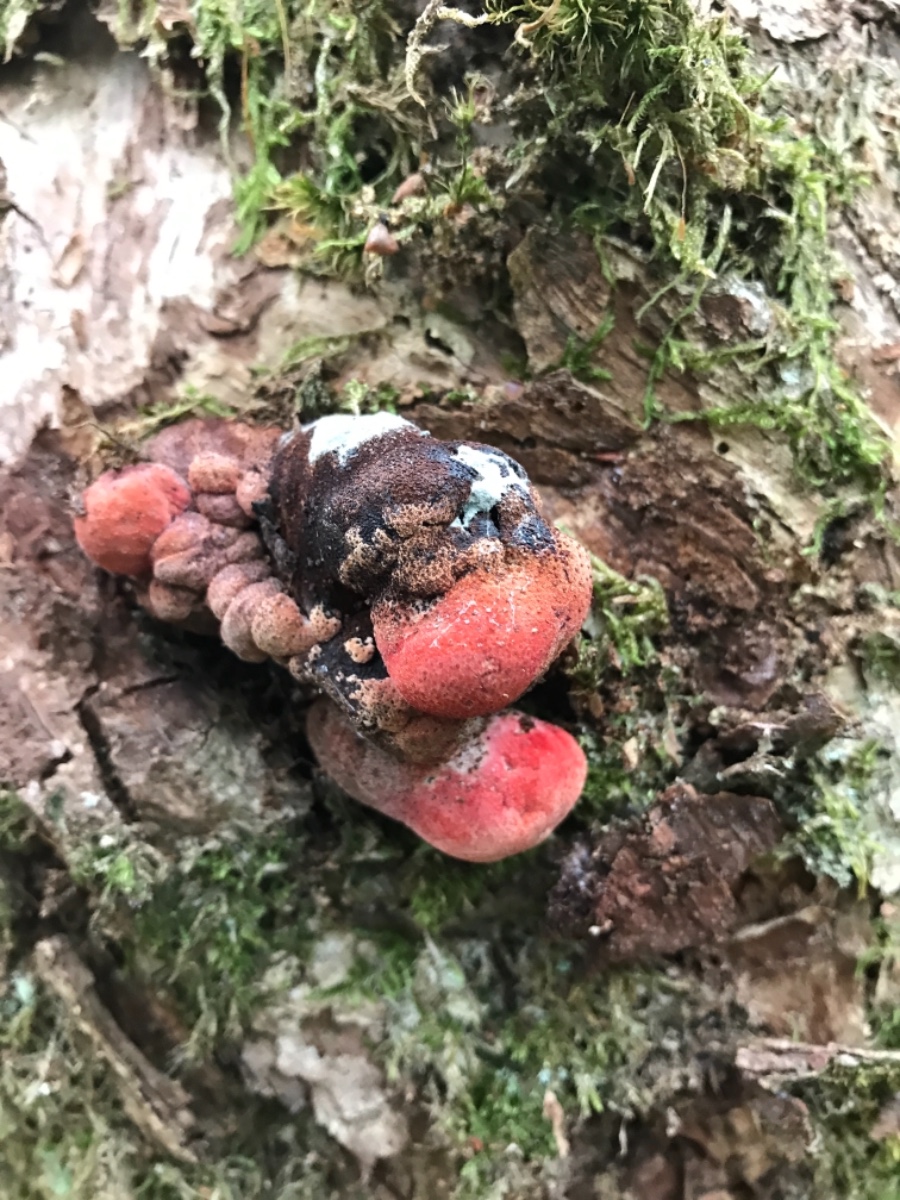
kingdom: Fungi
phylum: Basidiomycota
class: Agaricomycetes
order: Agaricales
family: Fistulinaceae
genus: Fistulina
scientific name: Fistulina hepatica
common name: oksetunge
